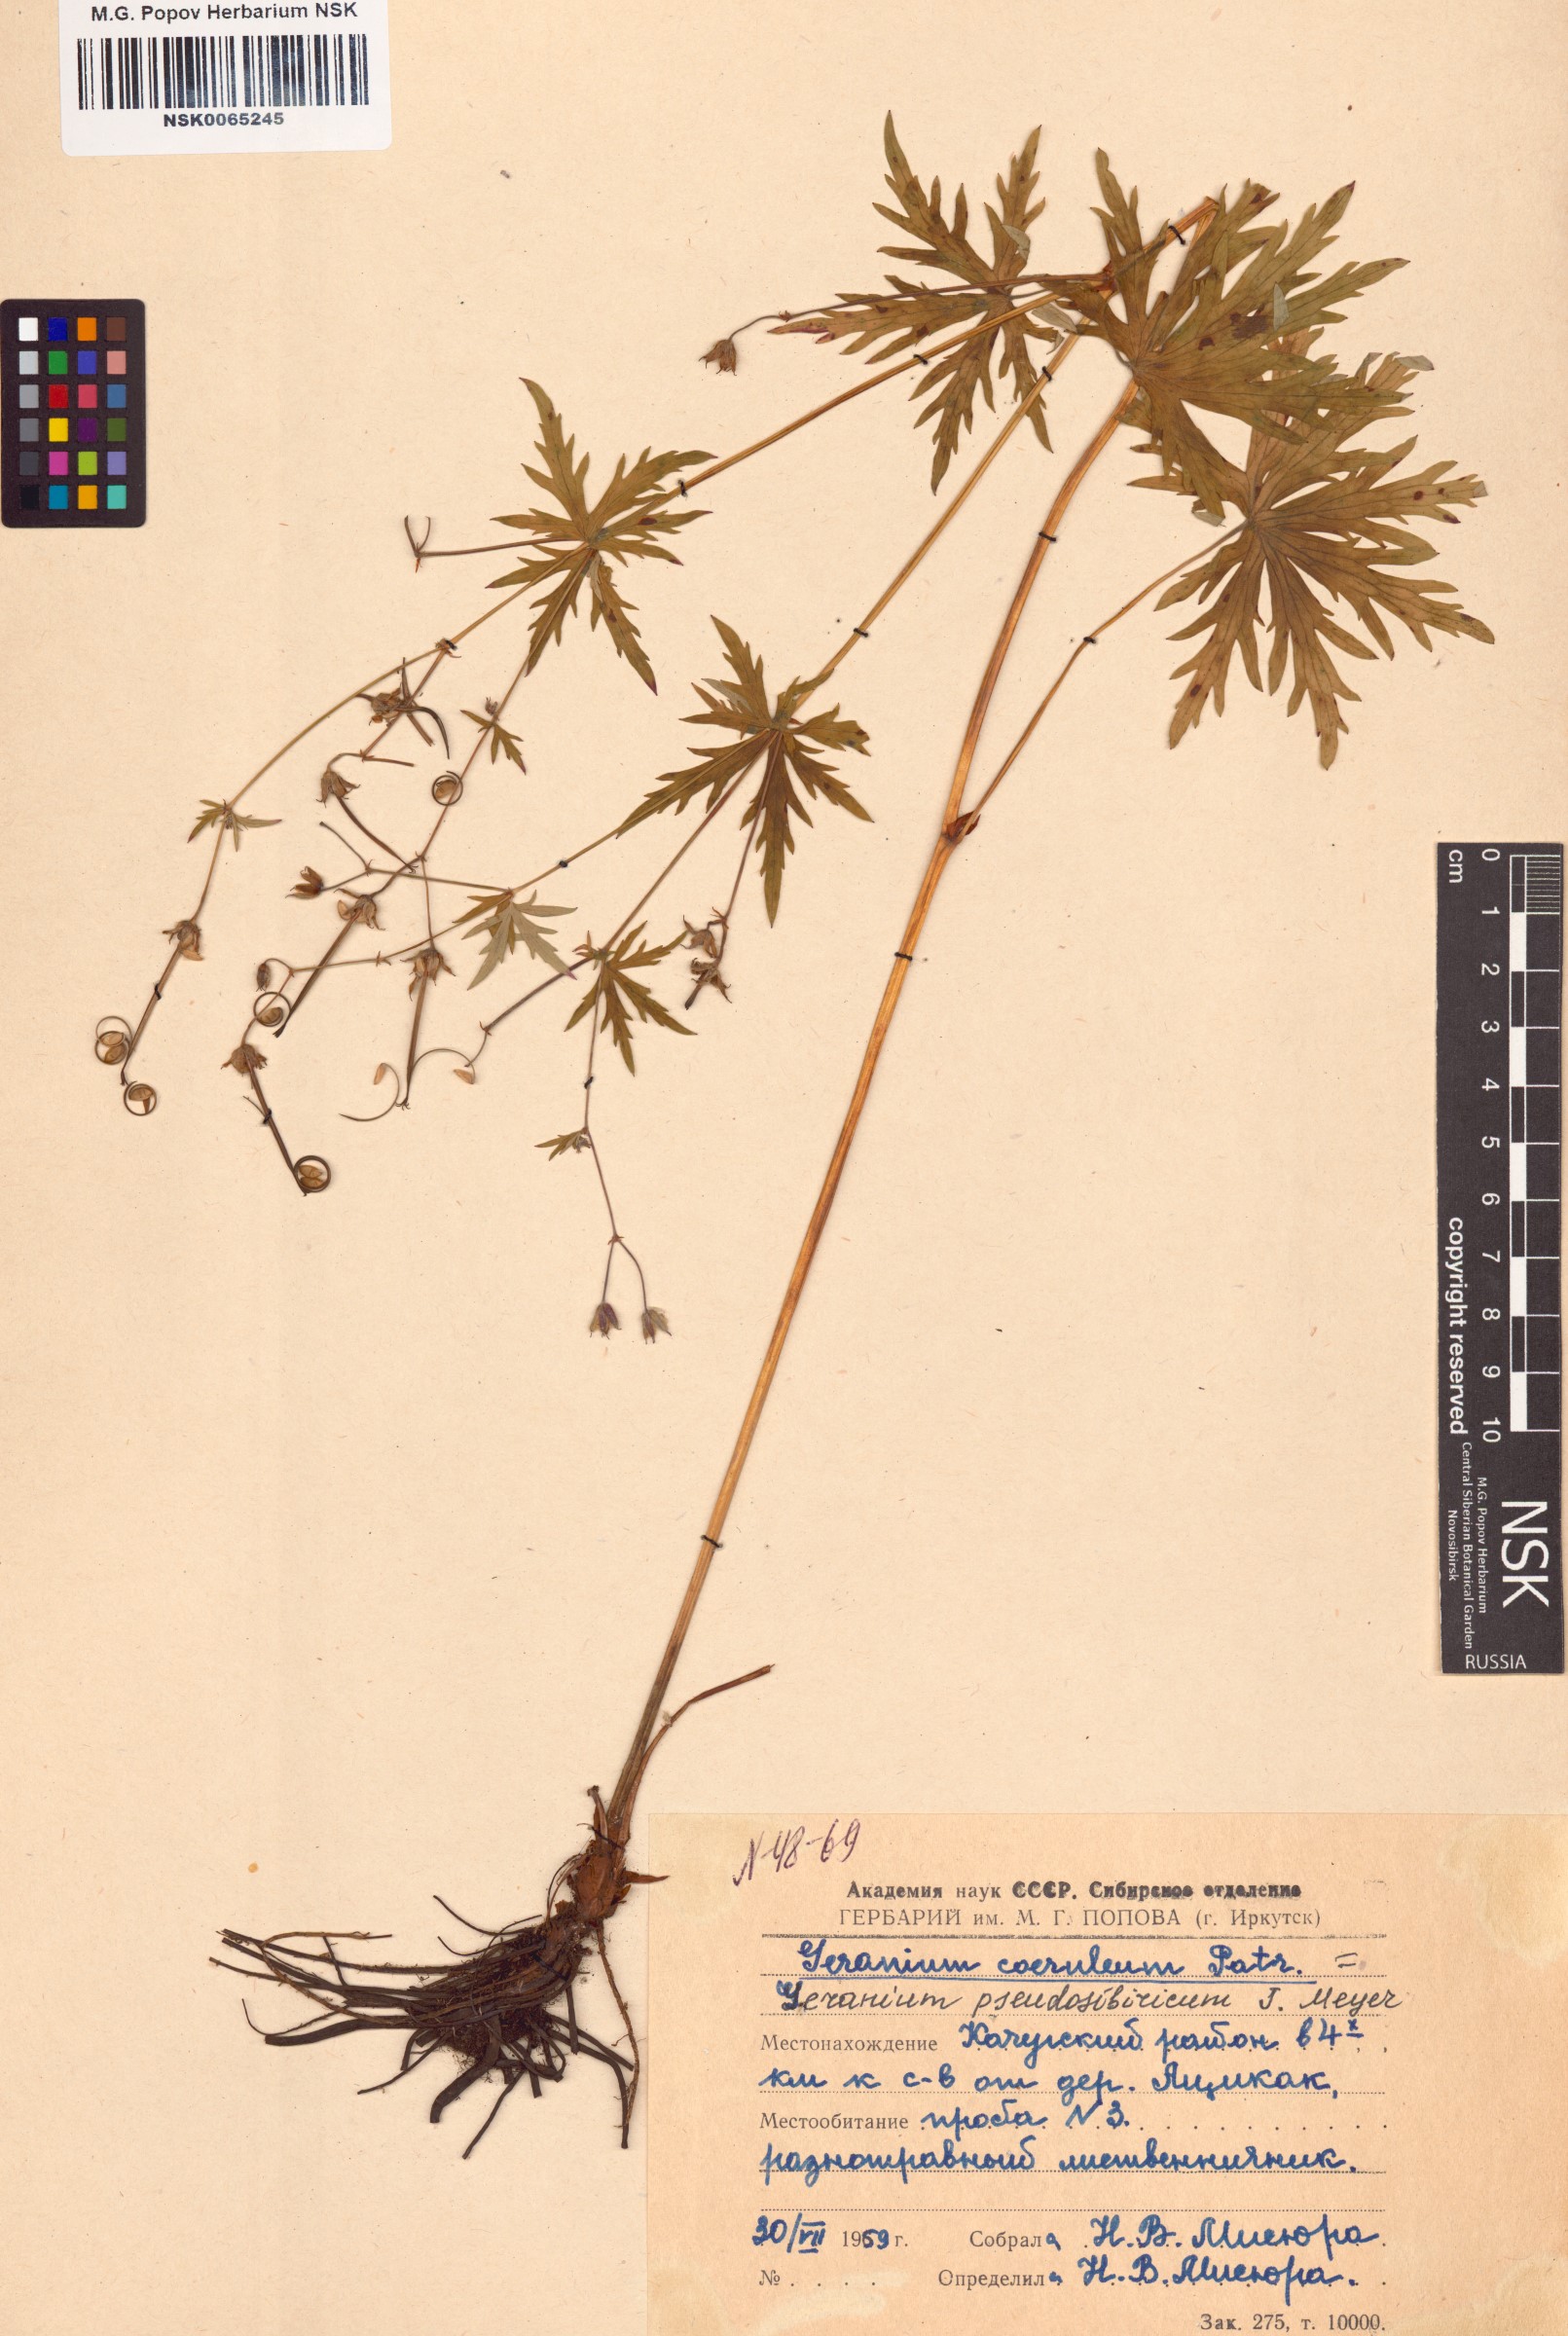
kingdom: Plantae
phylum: Tracheophyta
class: Magnoliopsida
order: Geraniales
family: Geraniaceae
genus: Geranium
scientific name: Geranium pseudosibiricum
